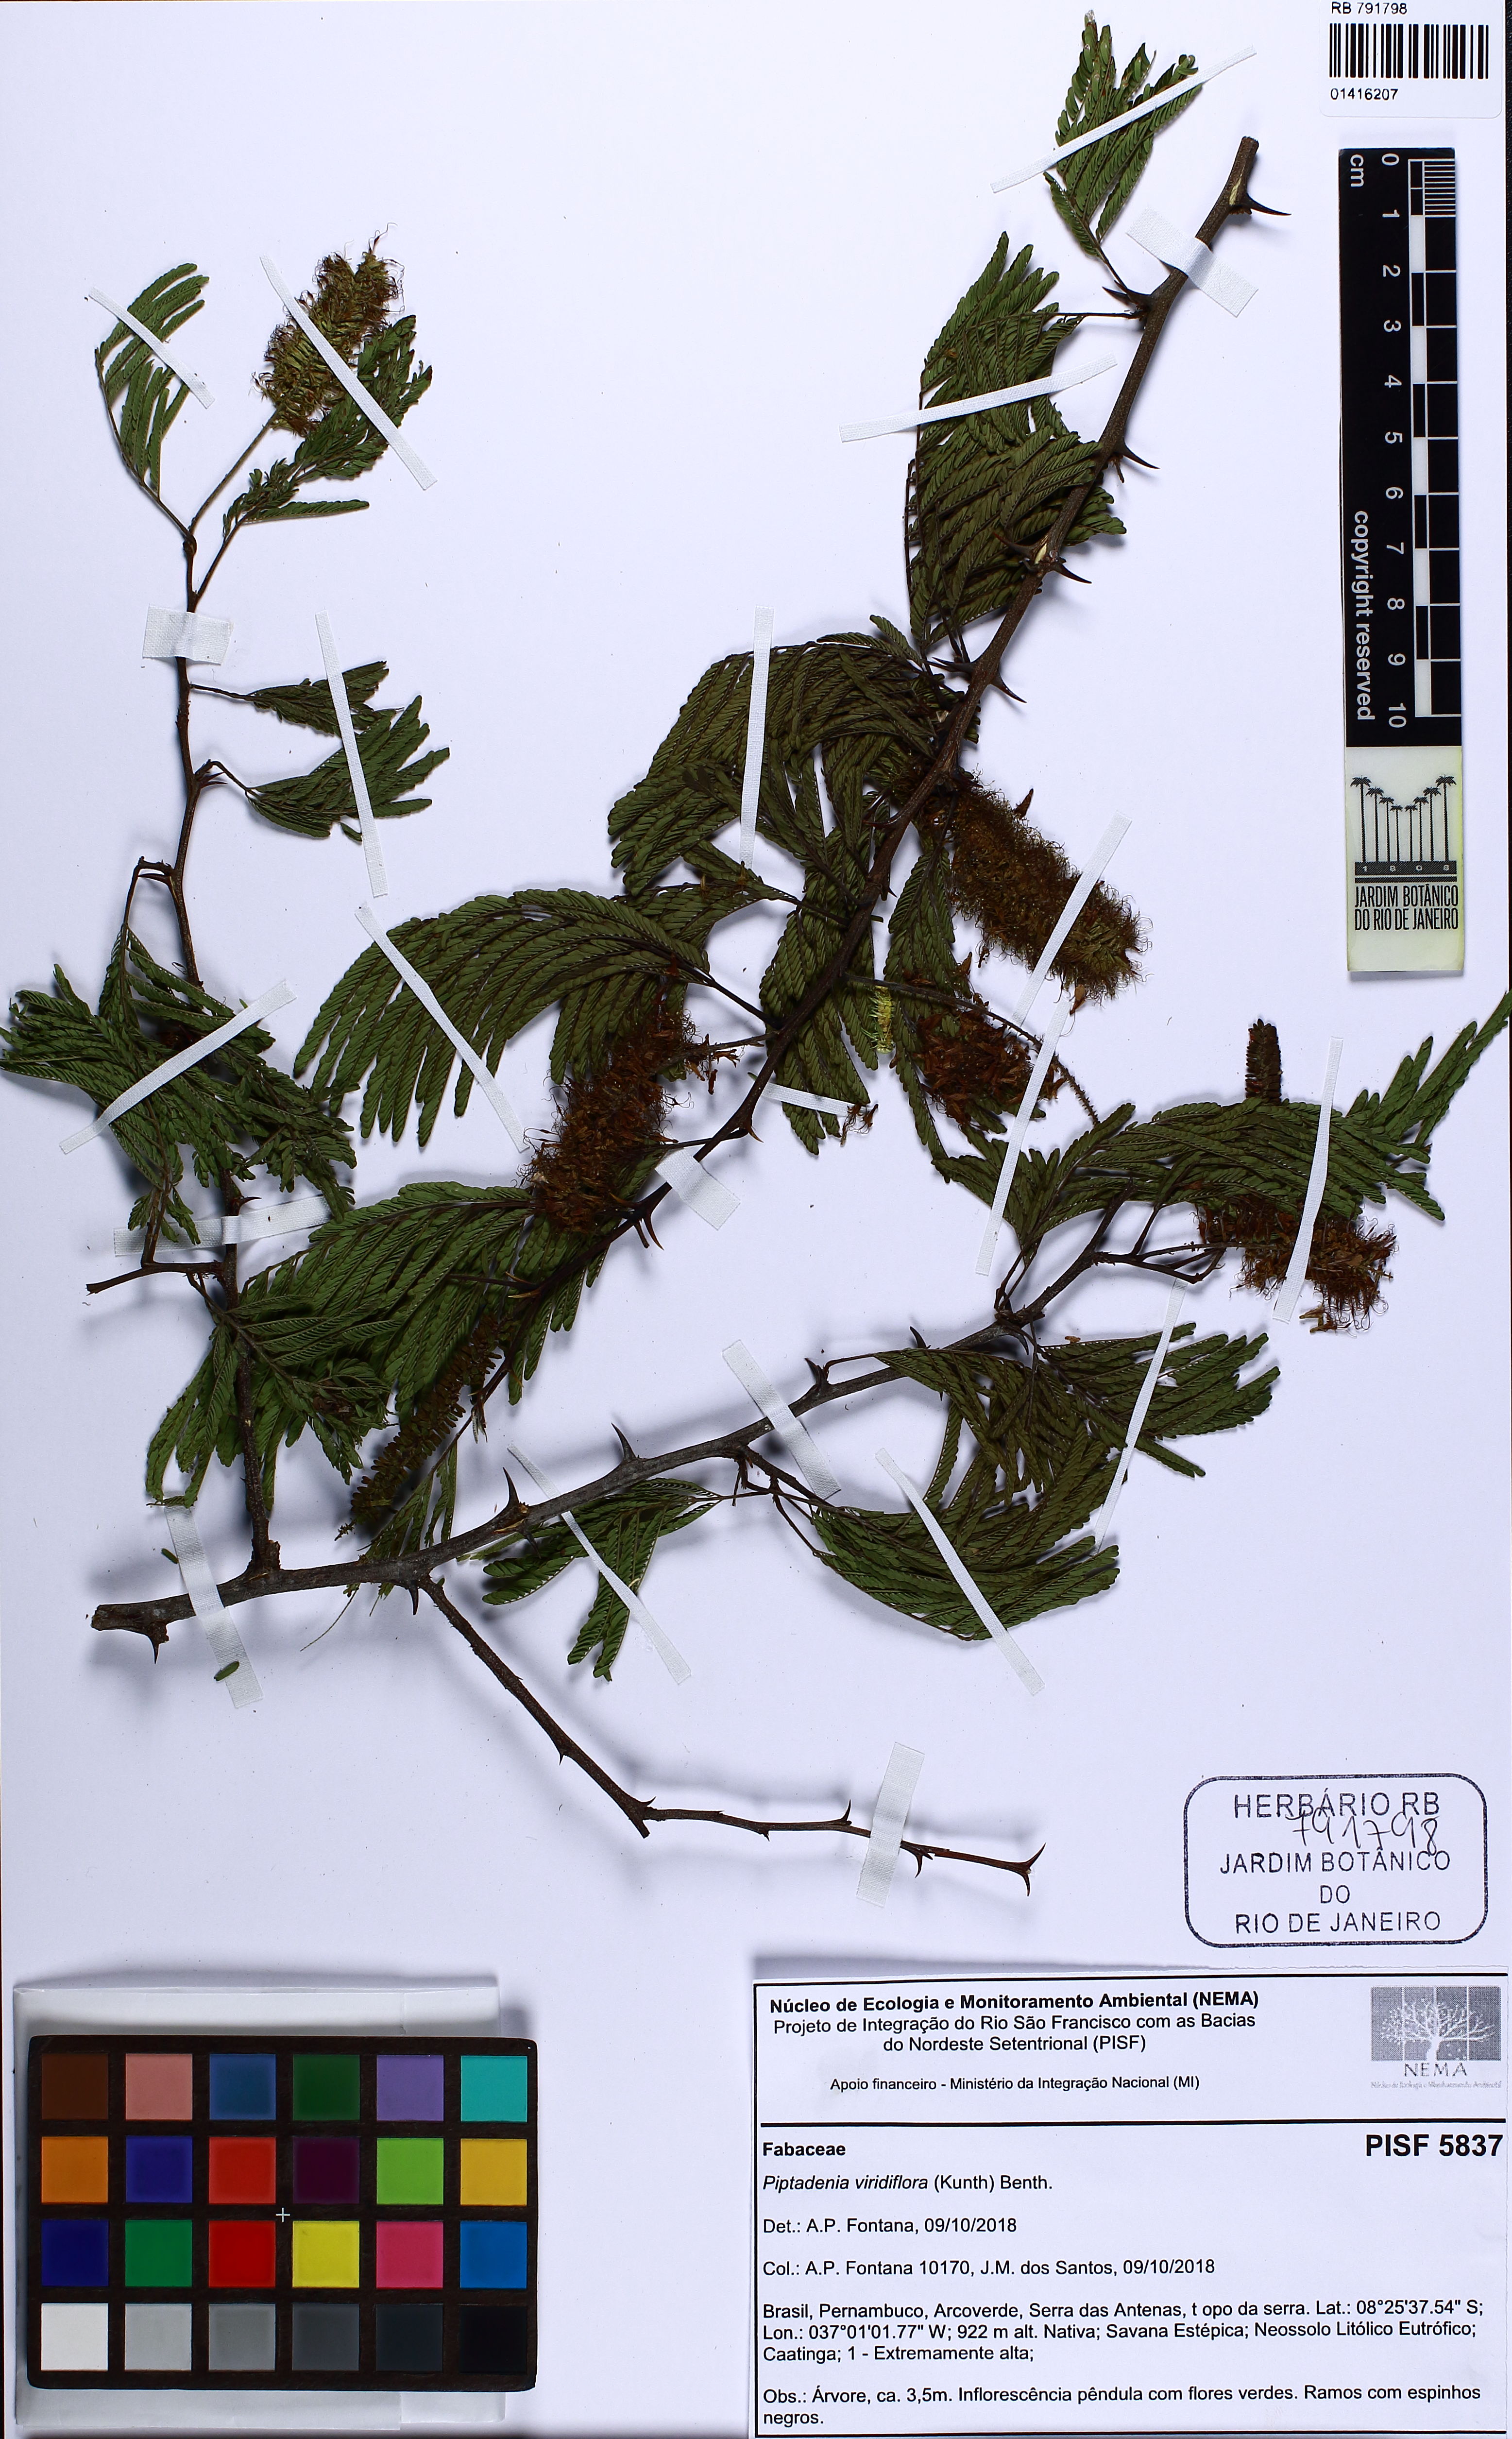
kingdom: Plantae
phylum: Tracheophyta
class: Magnoliopsida
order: Fabales
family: Fabaceae
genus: Lachesiodendron
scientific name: Lachesiodendron viridiflorum
